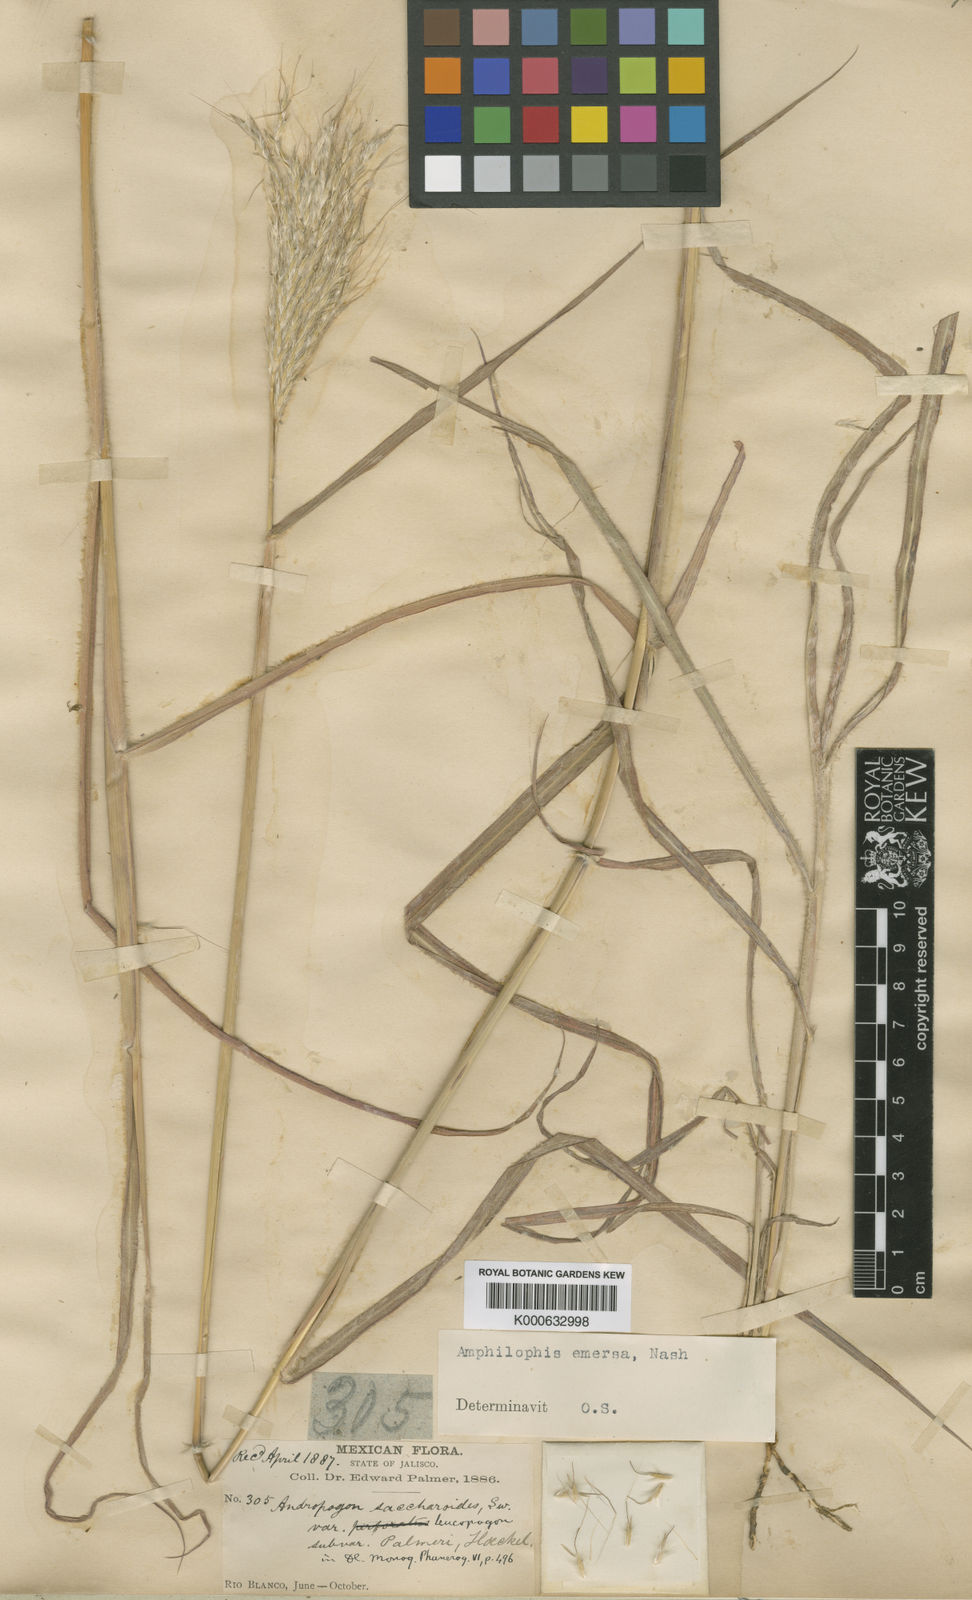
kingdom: Plantae
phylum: Tracheophyta
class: Liliopsida
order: Poales
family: Poaceae
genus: Bothriochloa
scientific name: Bothriochloa barbinodis
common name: Cane bluestem
